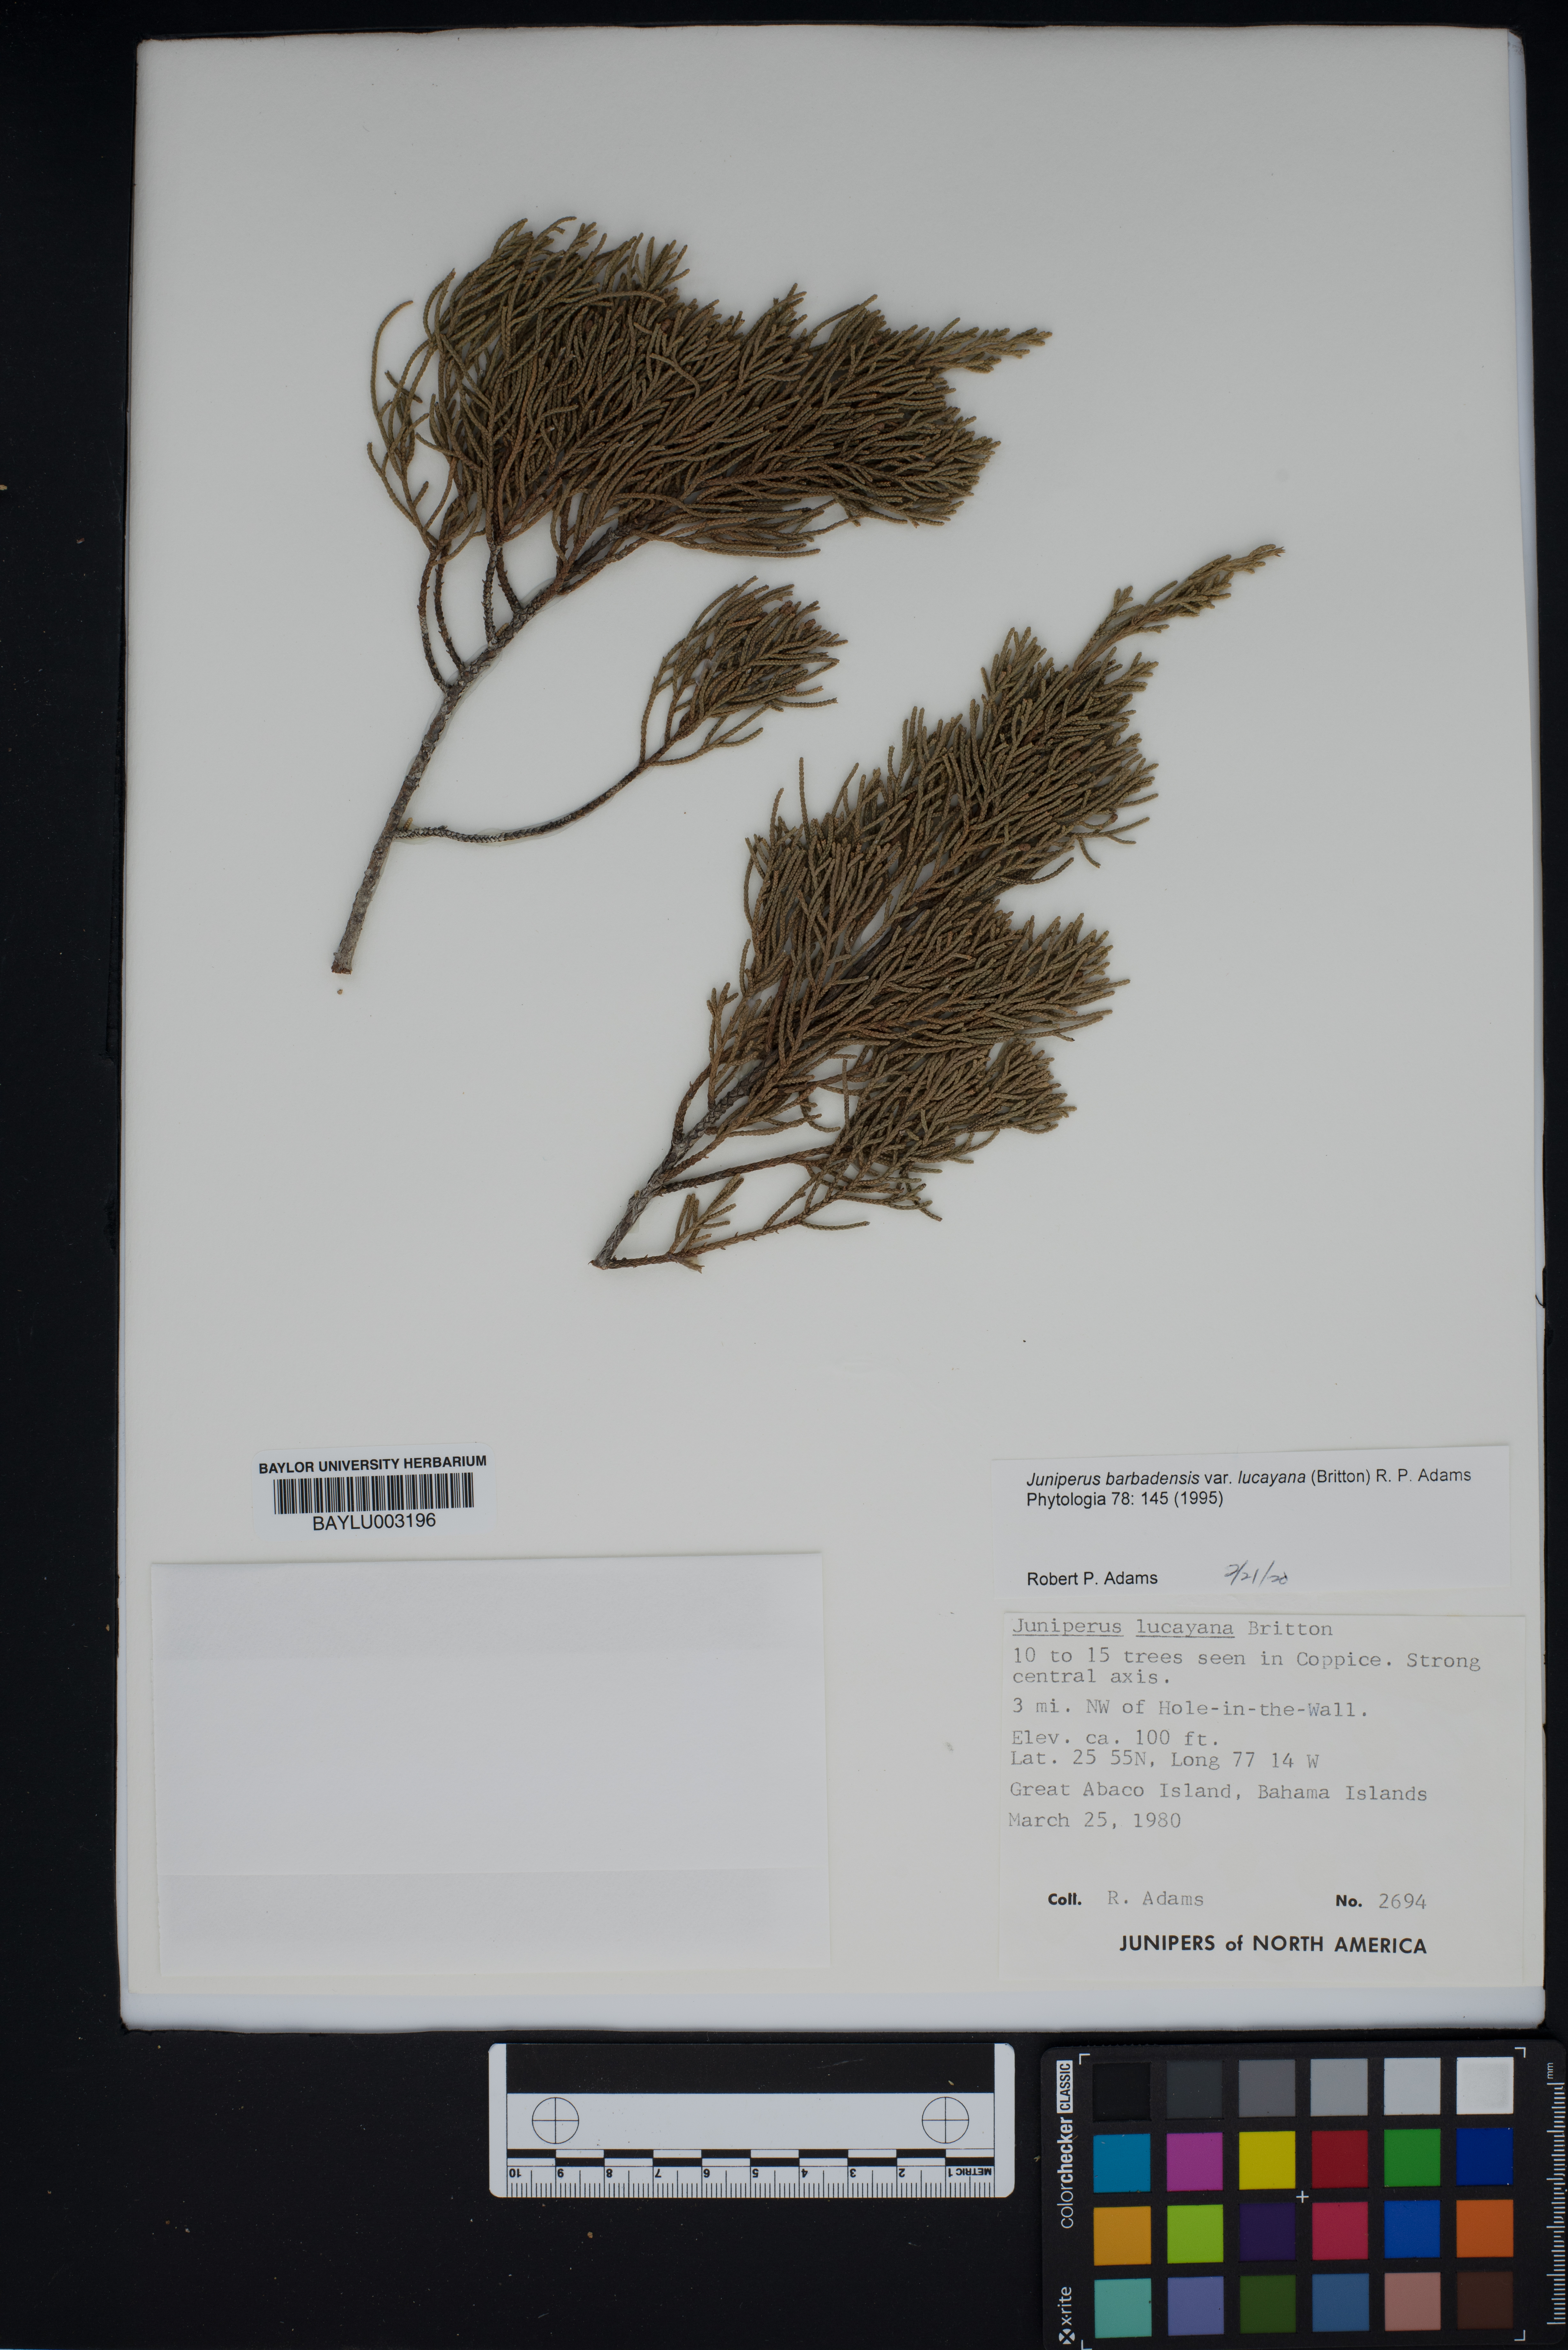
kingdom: Plantae
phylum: Tracheophyta
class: Pinopsida
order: Pinales
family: Cupressaceae
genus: Juniperus
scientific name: Juniperus barbadensis
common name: West indies juniper
